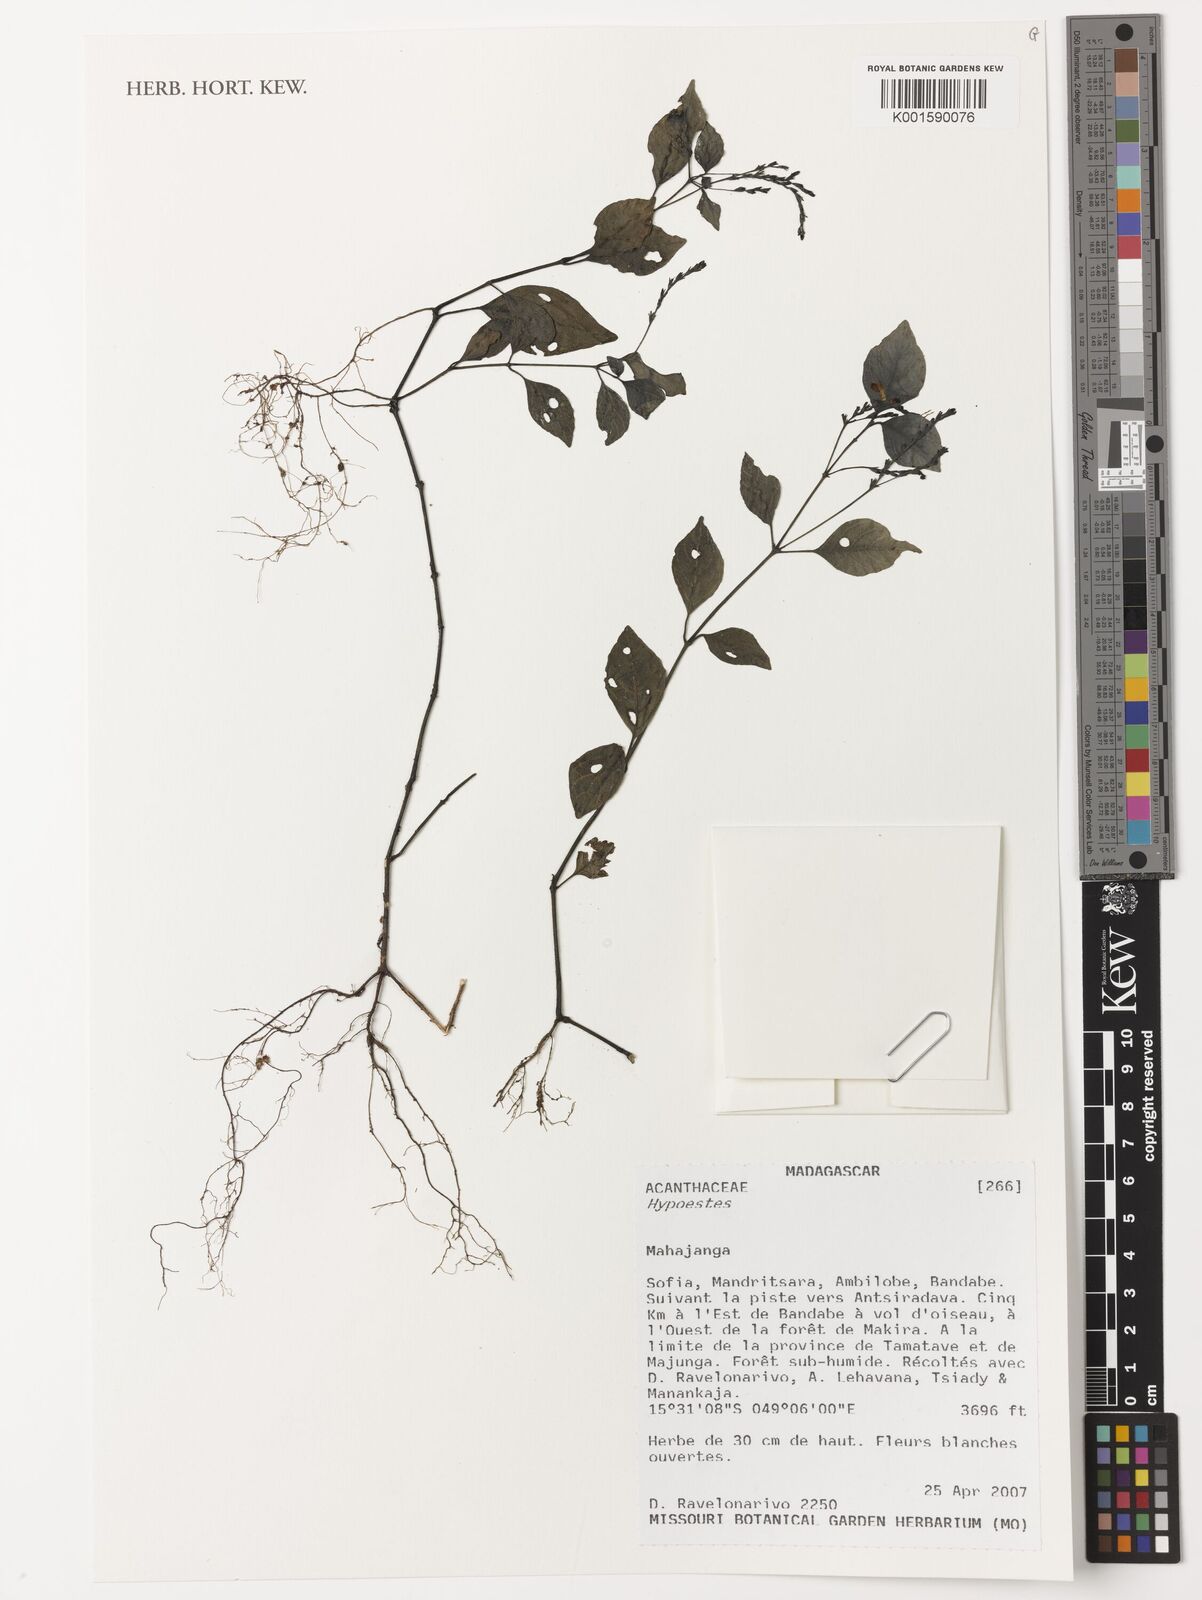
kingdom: Plantae
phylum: Tracheophyta
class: Magnoliopsida
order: Lamiales
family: Acanthaceae
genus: Hypoestes
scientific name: Hypoestes
